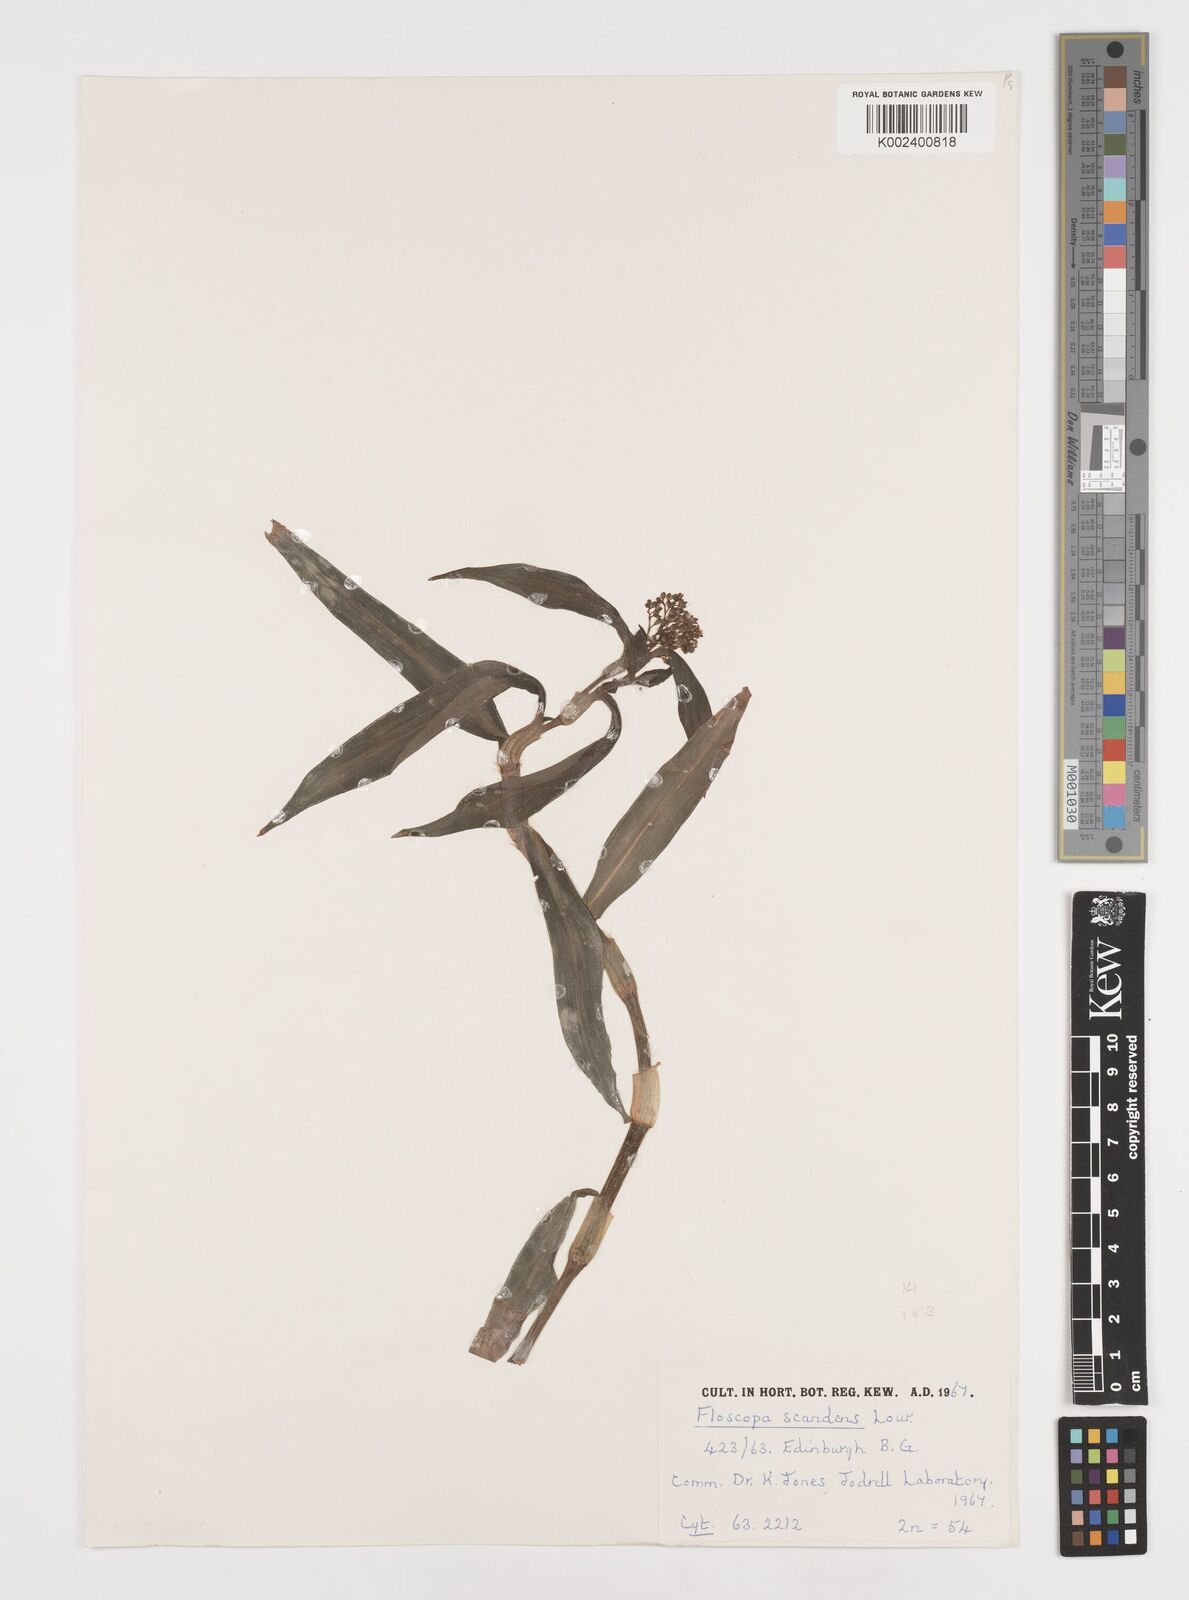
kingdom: Plantae
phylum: Tracheophyta
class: Liliopsida
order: Commelinales
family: Commelinaceae
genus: Floscopa
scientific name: Floscopa scandens
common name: Climbing flower cup
